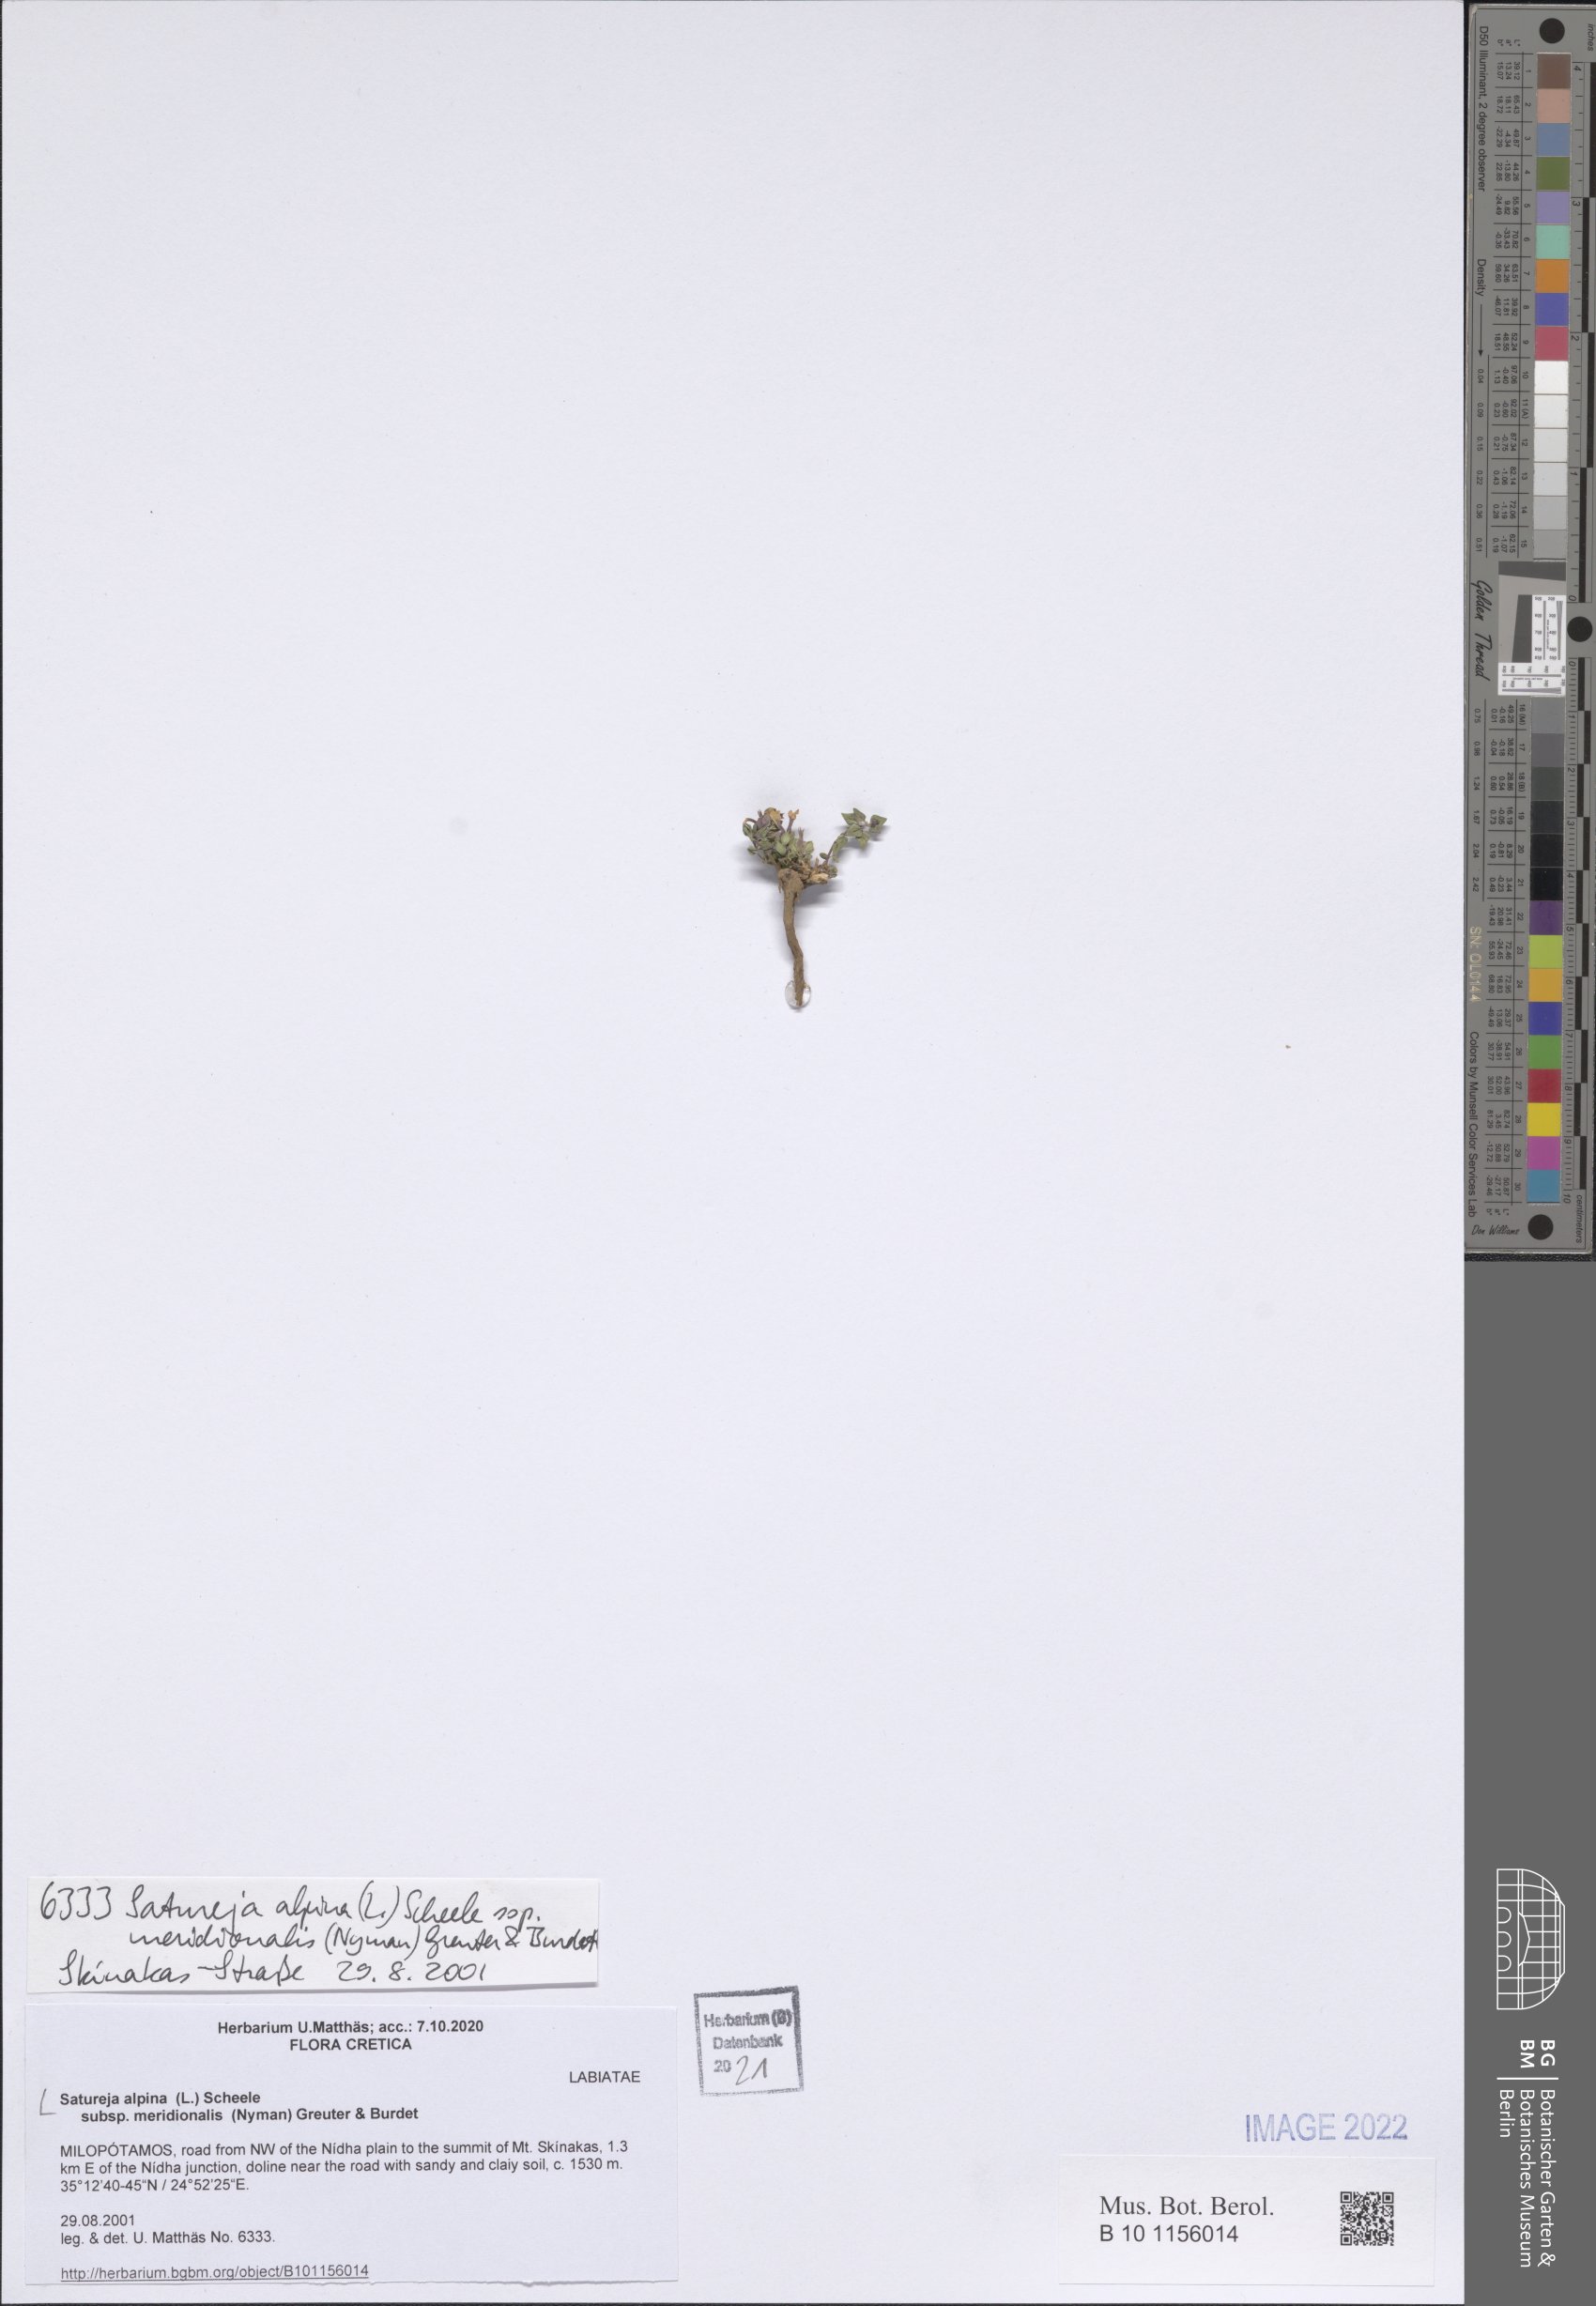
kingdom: Plantae
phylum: Tracheophyta
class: Magnoliopsida
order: Lamiales
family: Lamiaceae
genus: Clinopodium
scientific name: Clinopodium alpinum
